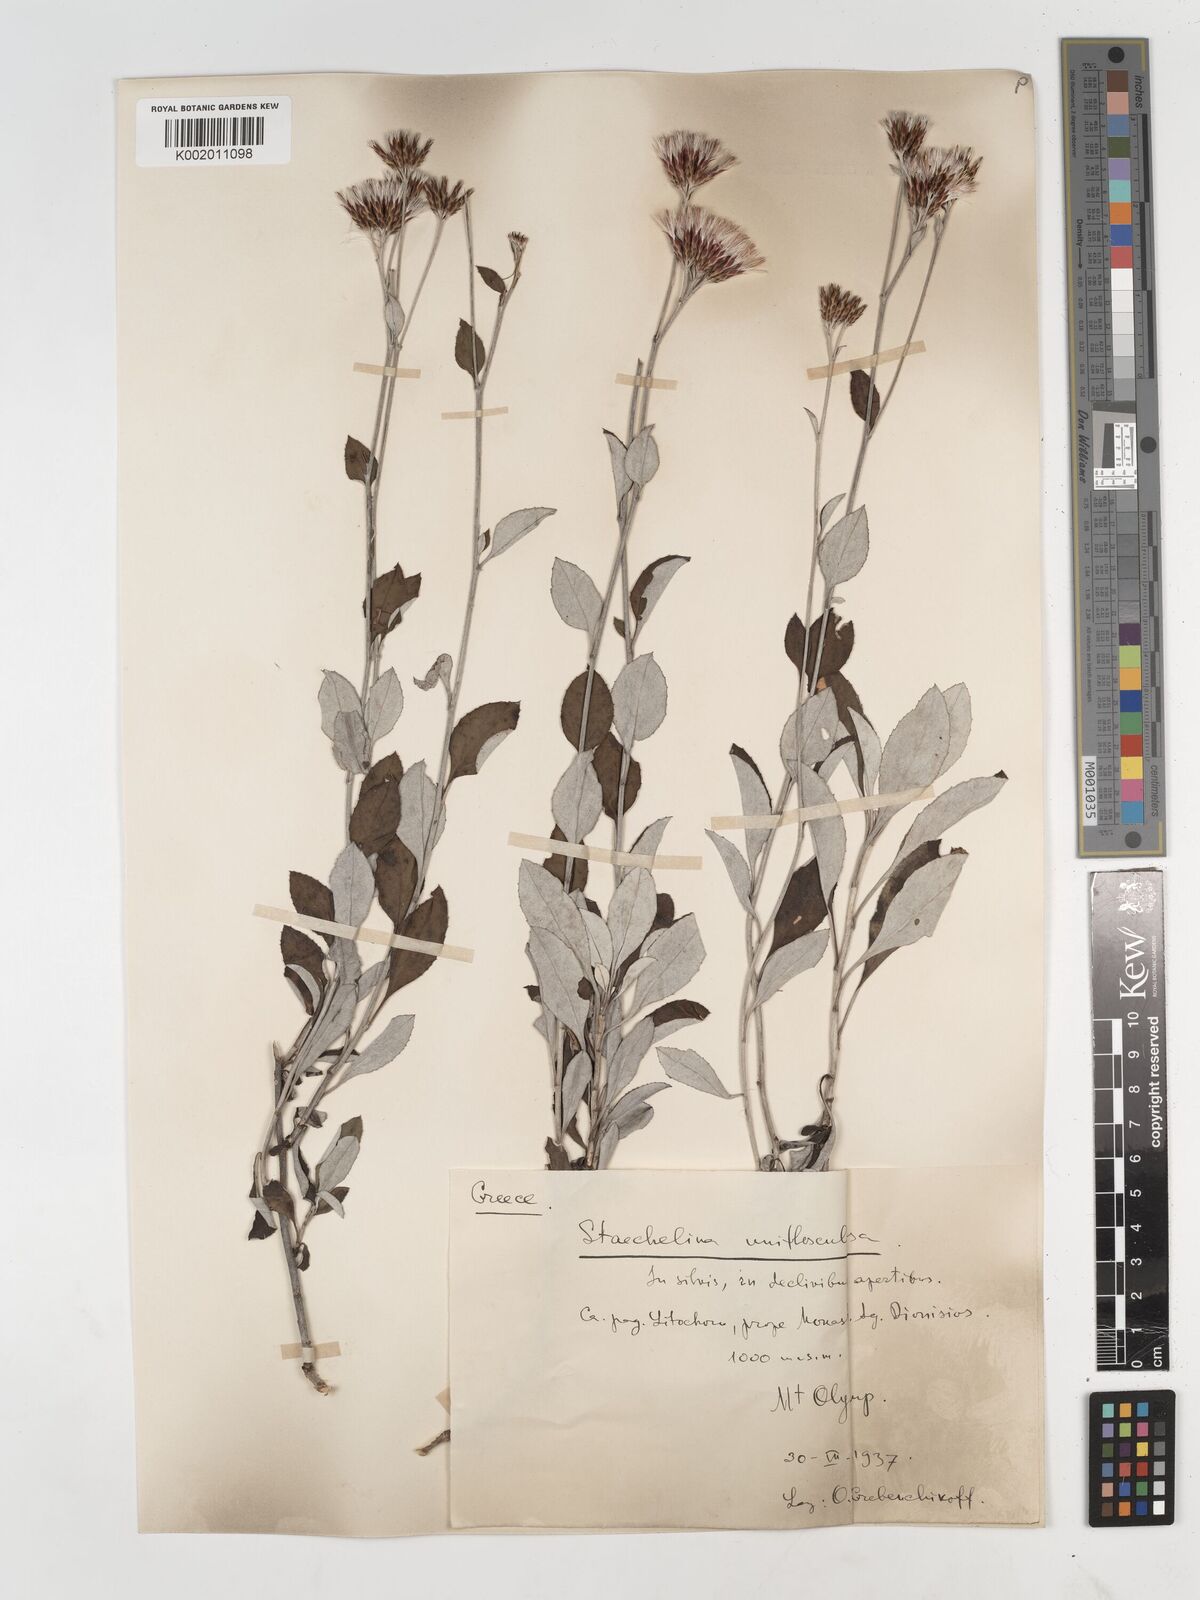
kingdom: Plantae
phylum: Tracheophyta
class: Magnoliopsida
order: Asterales
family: Asteraceae
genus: Staehelina
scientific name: Staehelina uniflosculosa
